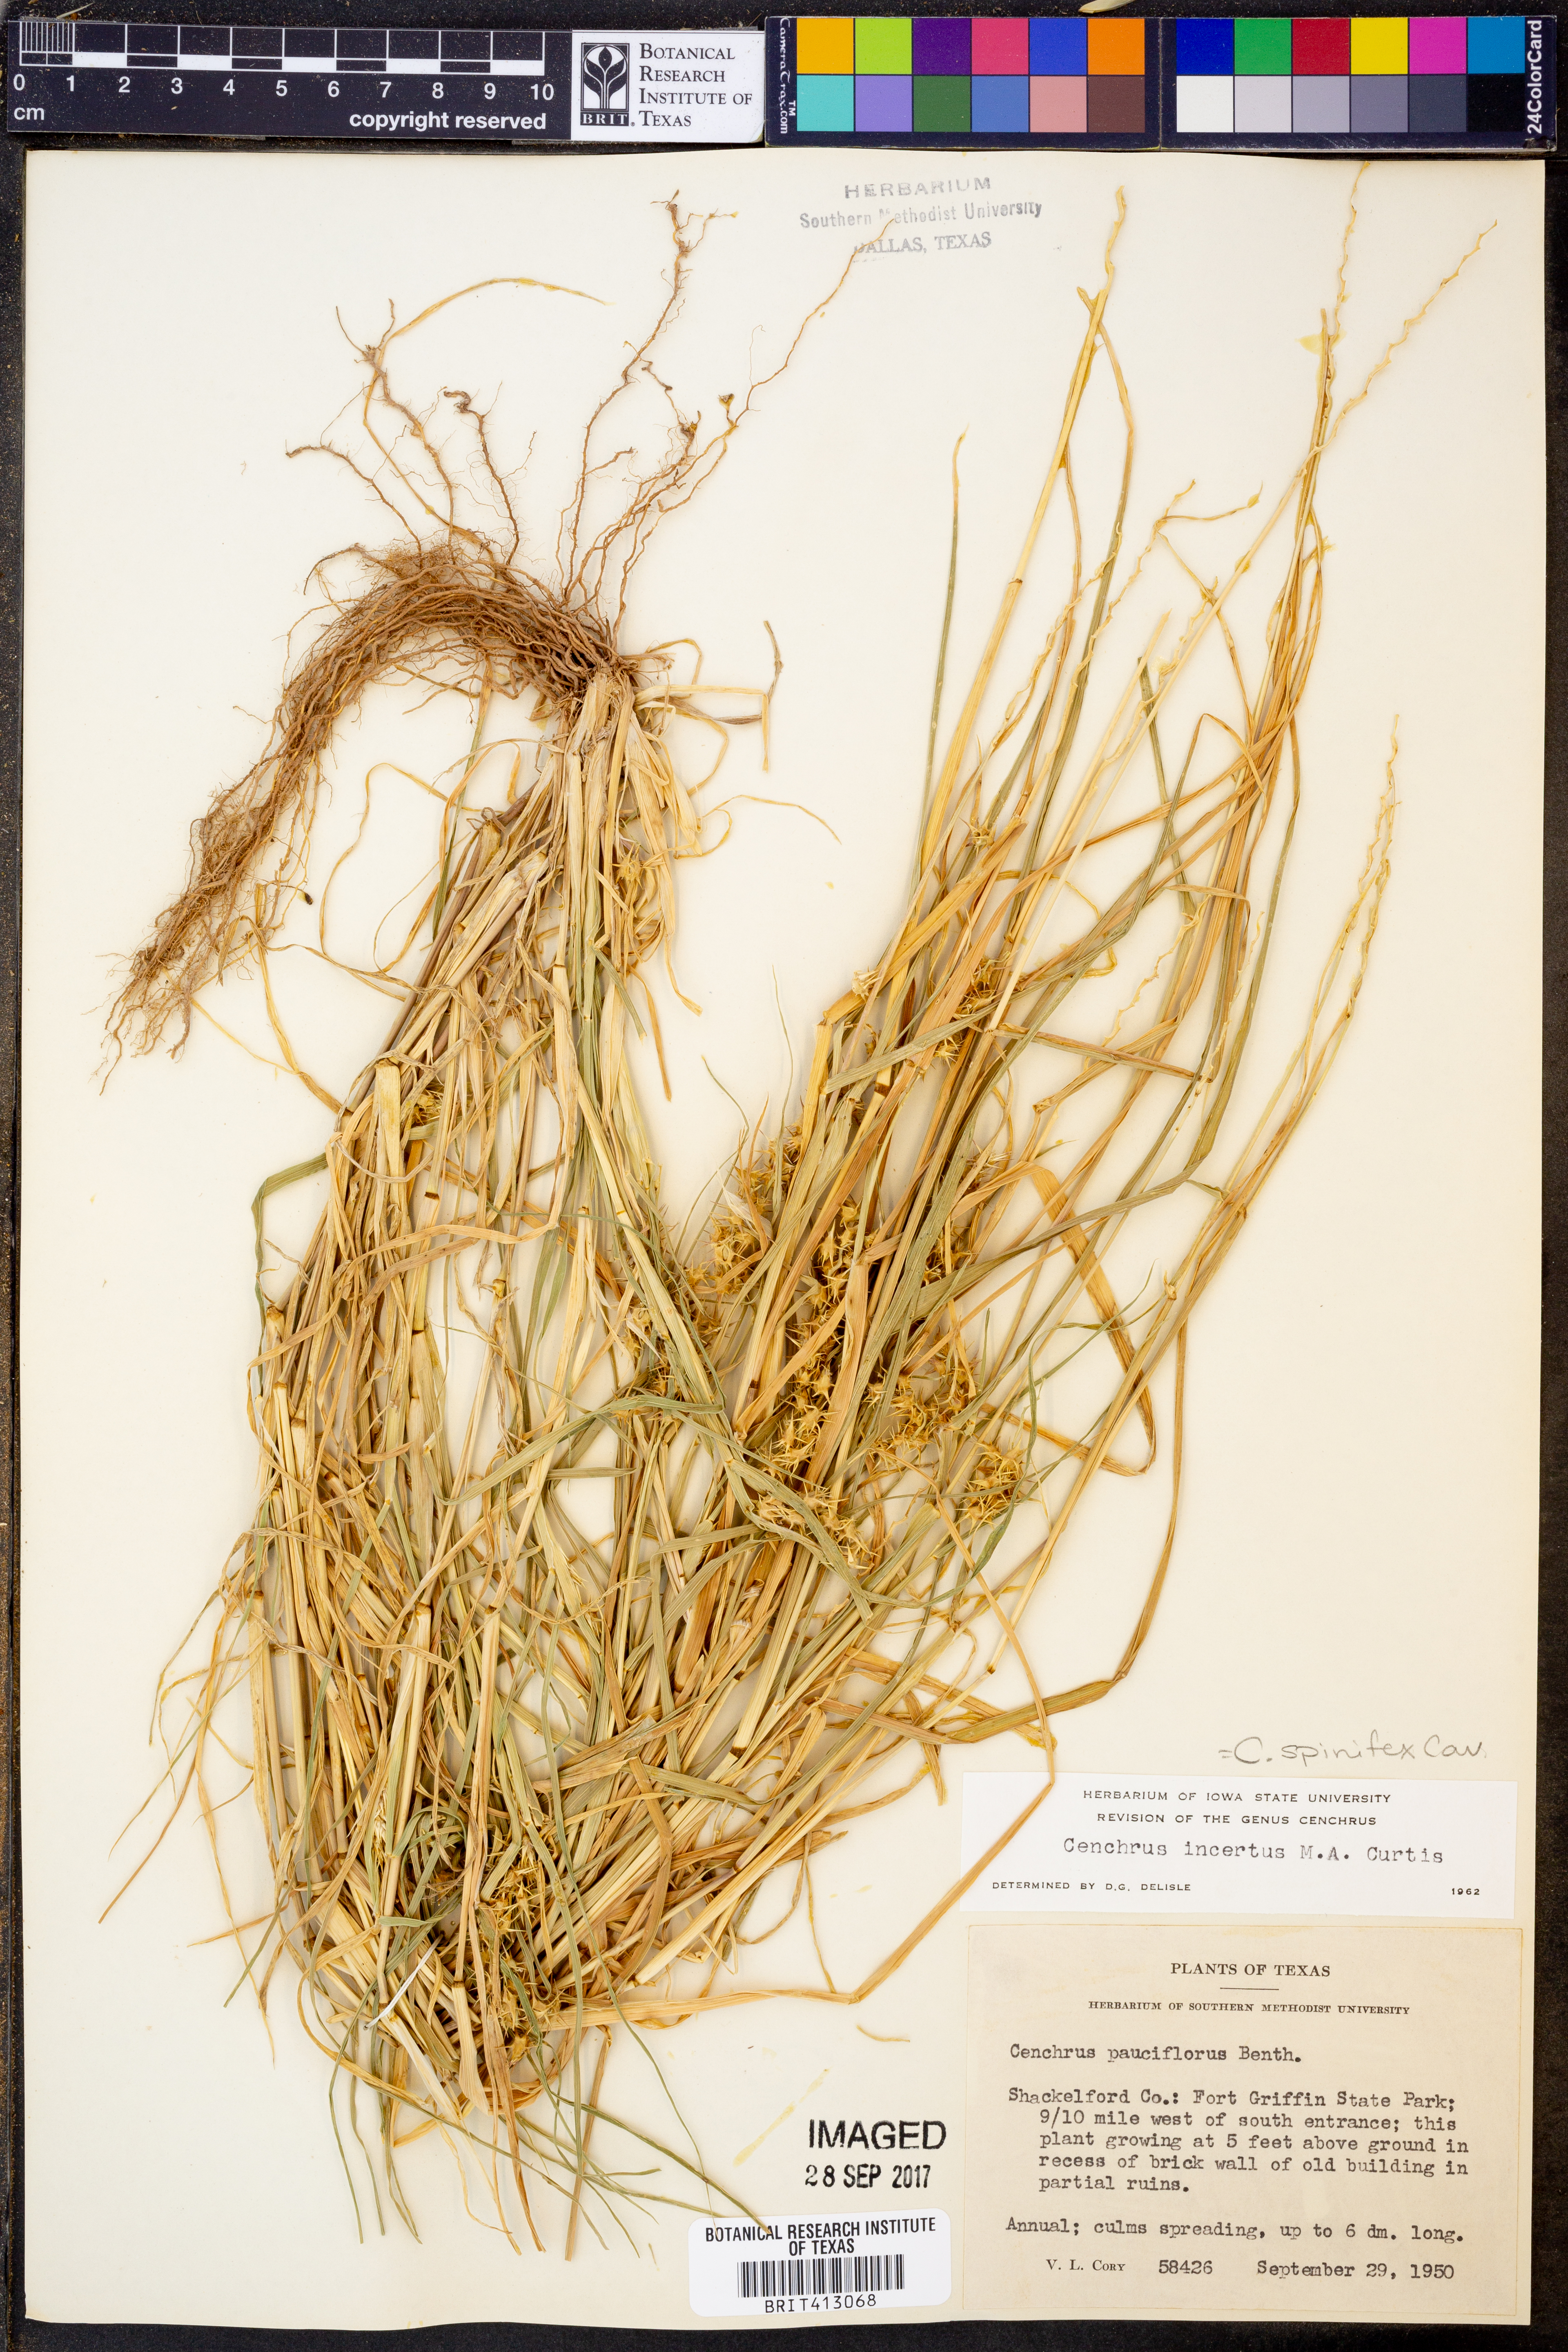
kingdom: Plantae
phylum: Tracheophyta
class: Liliopsida
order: Poales
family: Poaceae
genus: Cenchrus
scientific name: Cenchrus spinifex
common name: Coast sandbur
